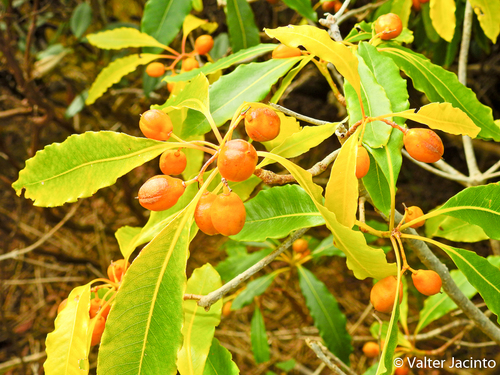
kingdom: Plantae
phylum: Tracheophyta
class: Magnoliopsida
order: Apiales
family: Pittosporaceae
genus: Pittosporum
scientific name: Pittosporum undulatum
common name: Australian cheesewood
